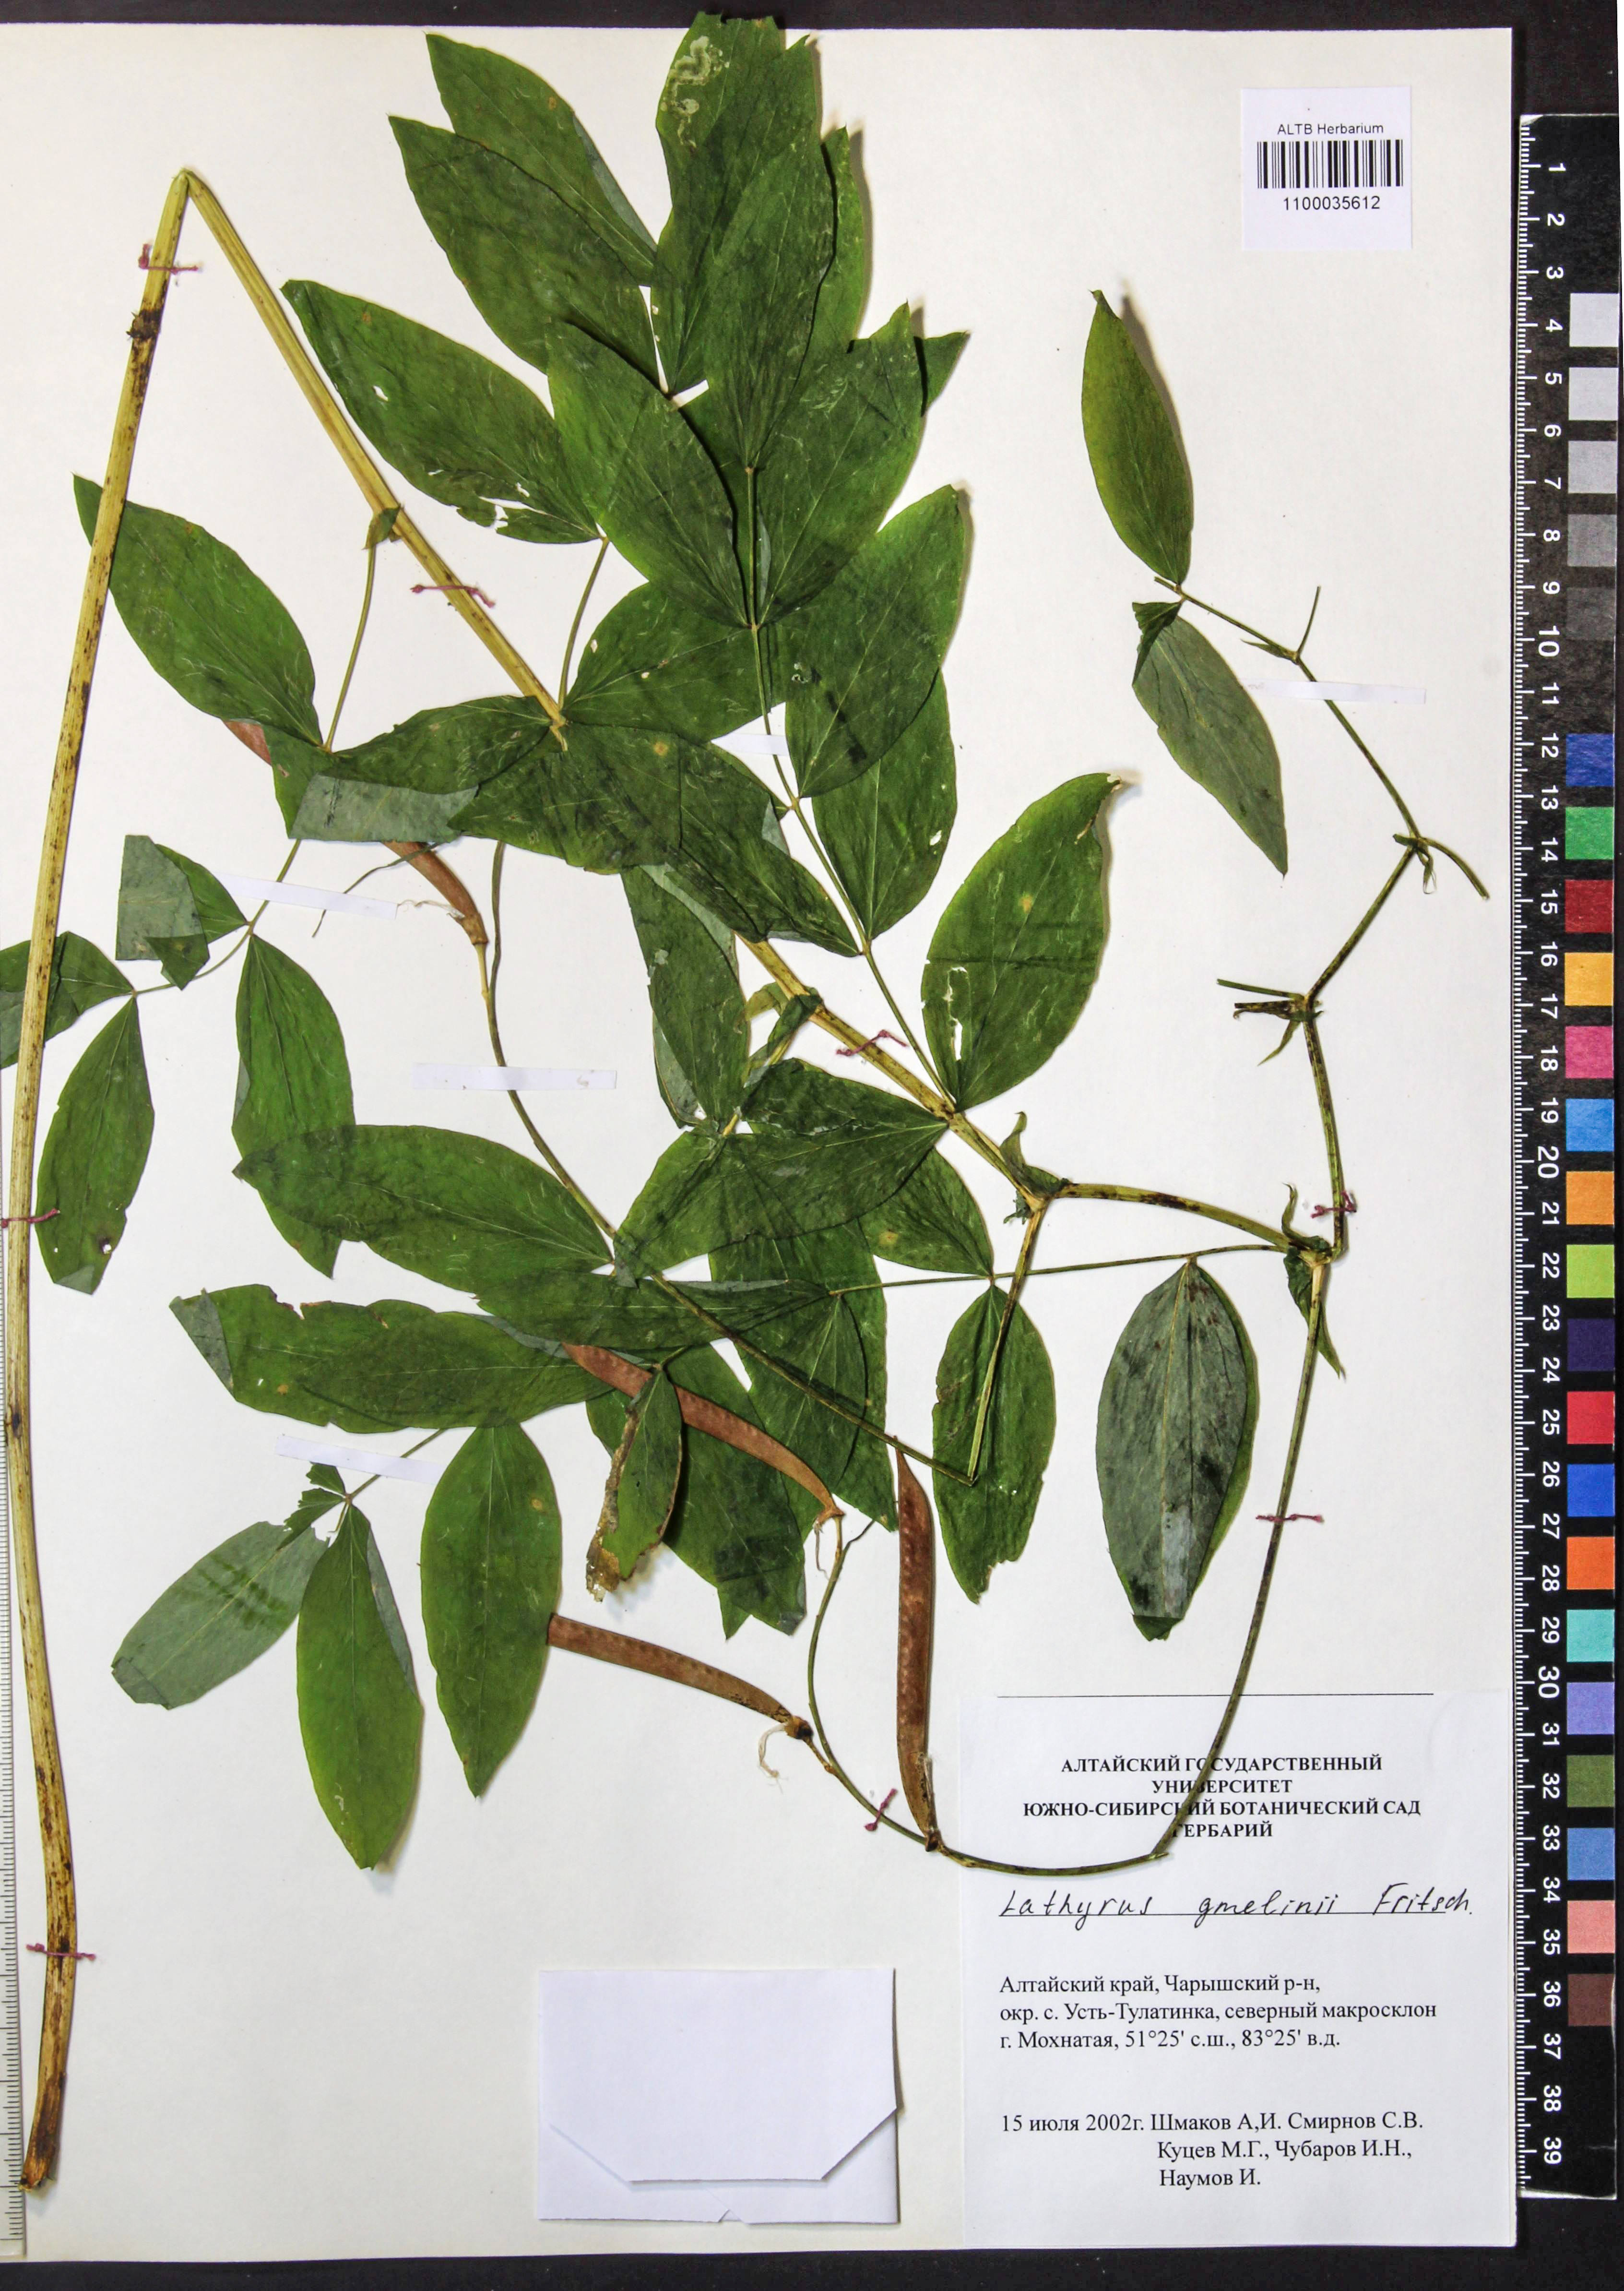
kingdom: Plantae
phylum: Tracheophyta
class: Magnoliopsida
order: Fabales
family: Fabaceae
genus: Lathyrus
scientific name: Lathyrus gmelinii
